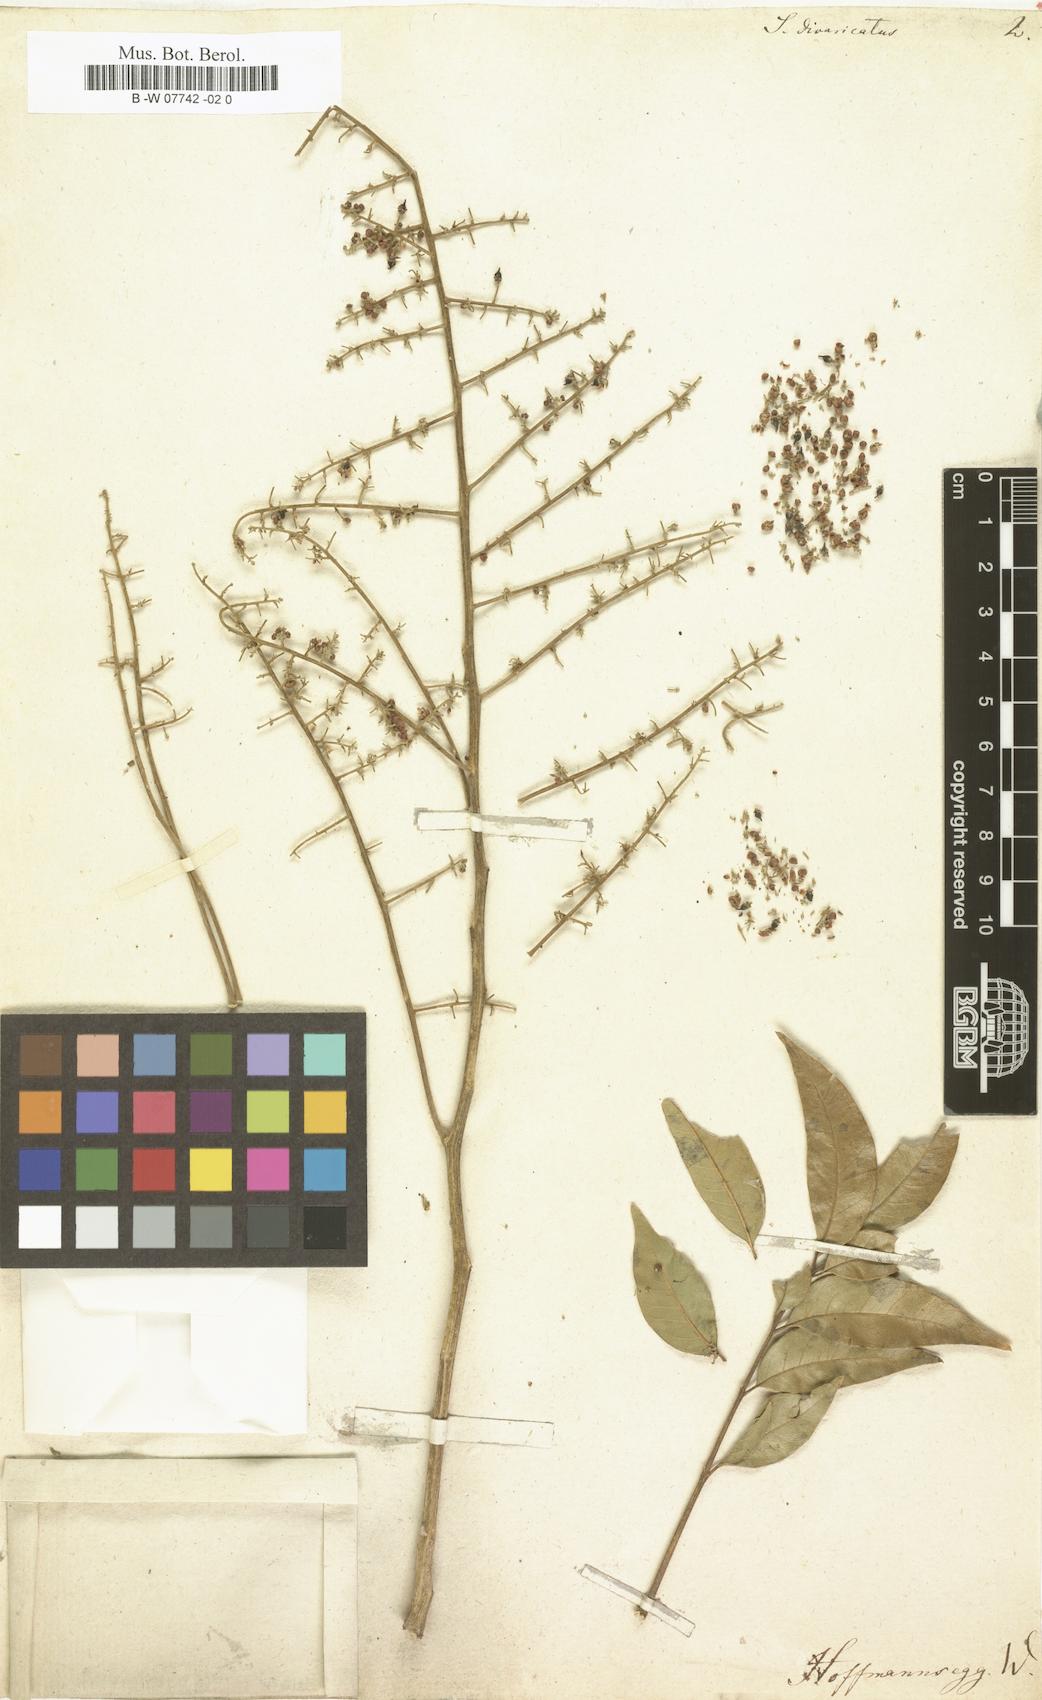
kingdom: Plantae
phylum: Tracheophyta
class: Magnoliopsida
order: Sapindales
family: Sapindaceae
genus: Sapindus
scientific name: Sapindus saponaria
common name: Wingleaf soapberry
